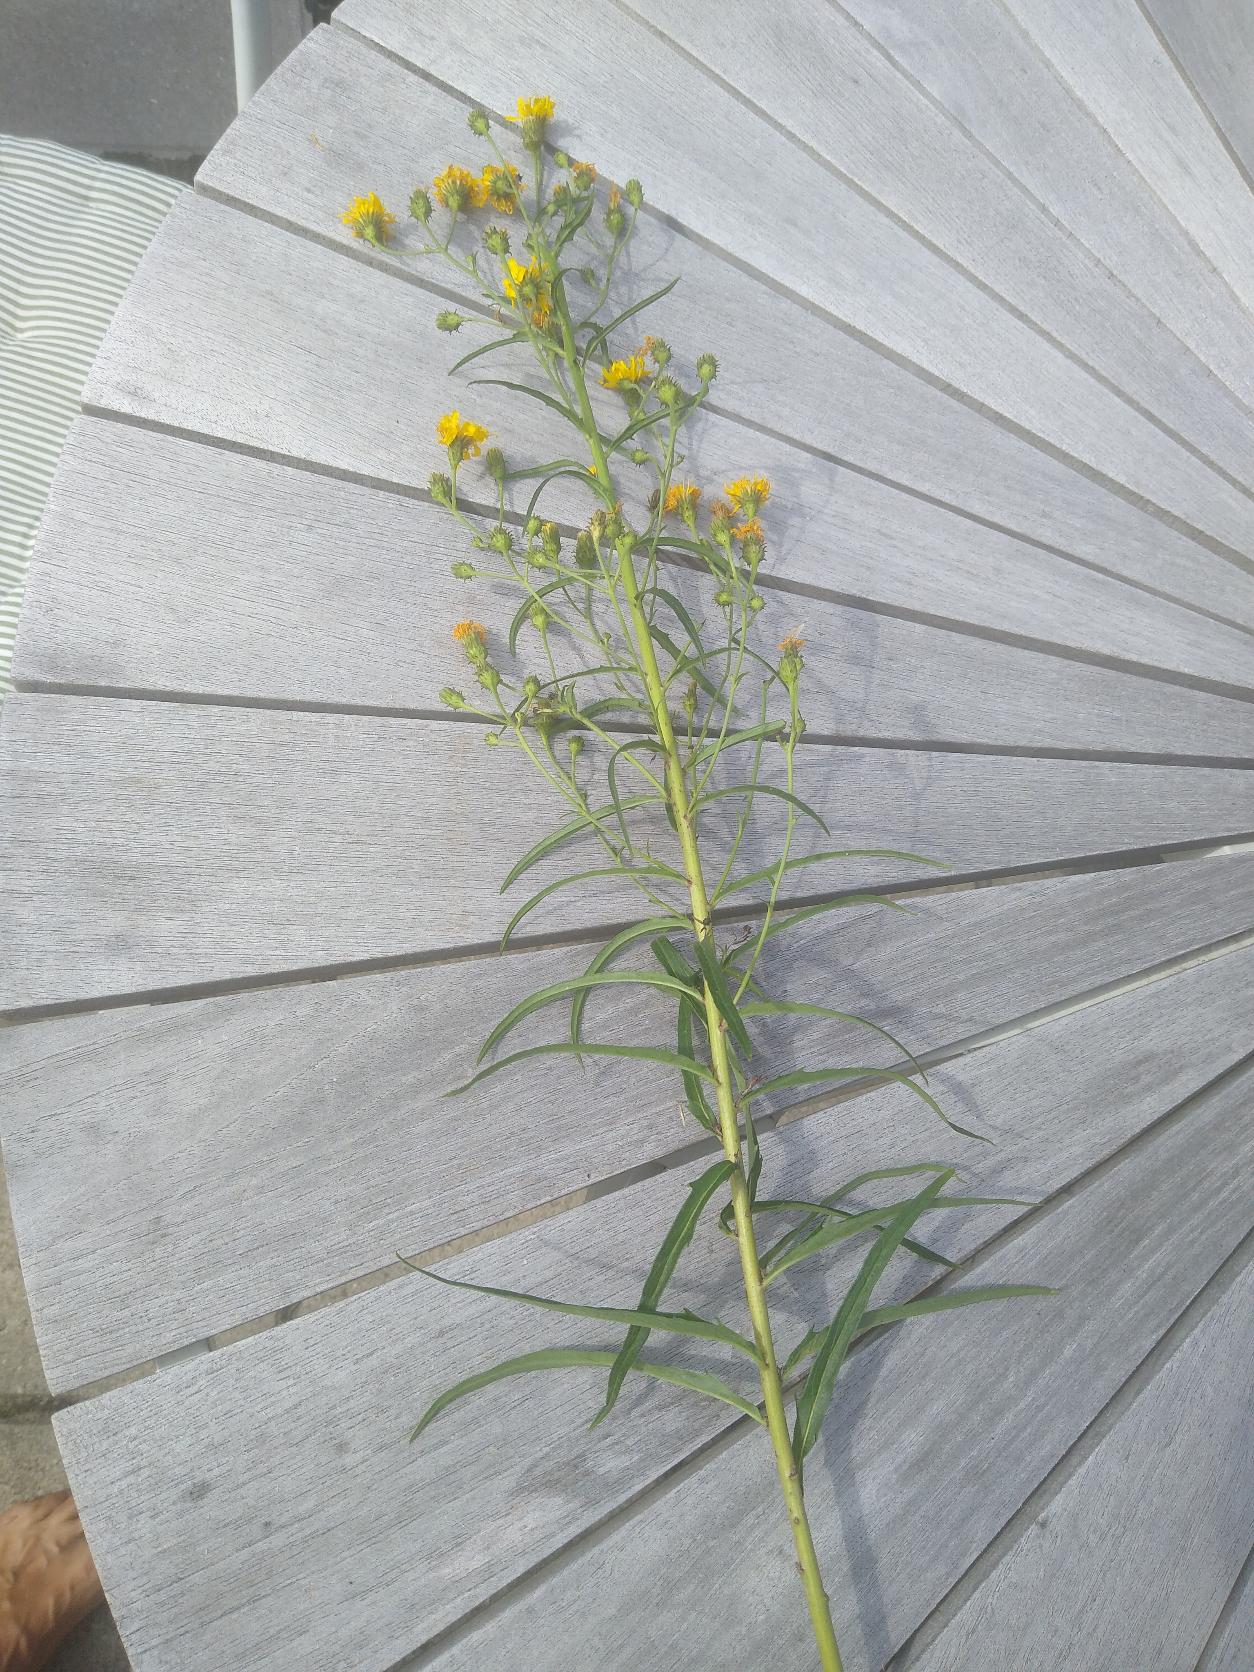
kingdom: Plantae
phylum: Tracheophyta
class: Magnoliopsida
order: Asterales
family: Asteraceae
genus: Hieracium
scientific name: Hieracium umbellatum
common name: Smalbladet høgeurt
